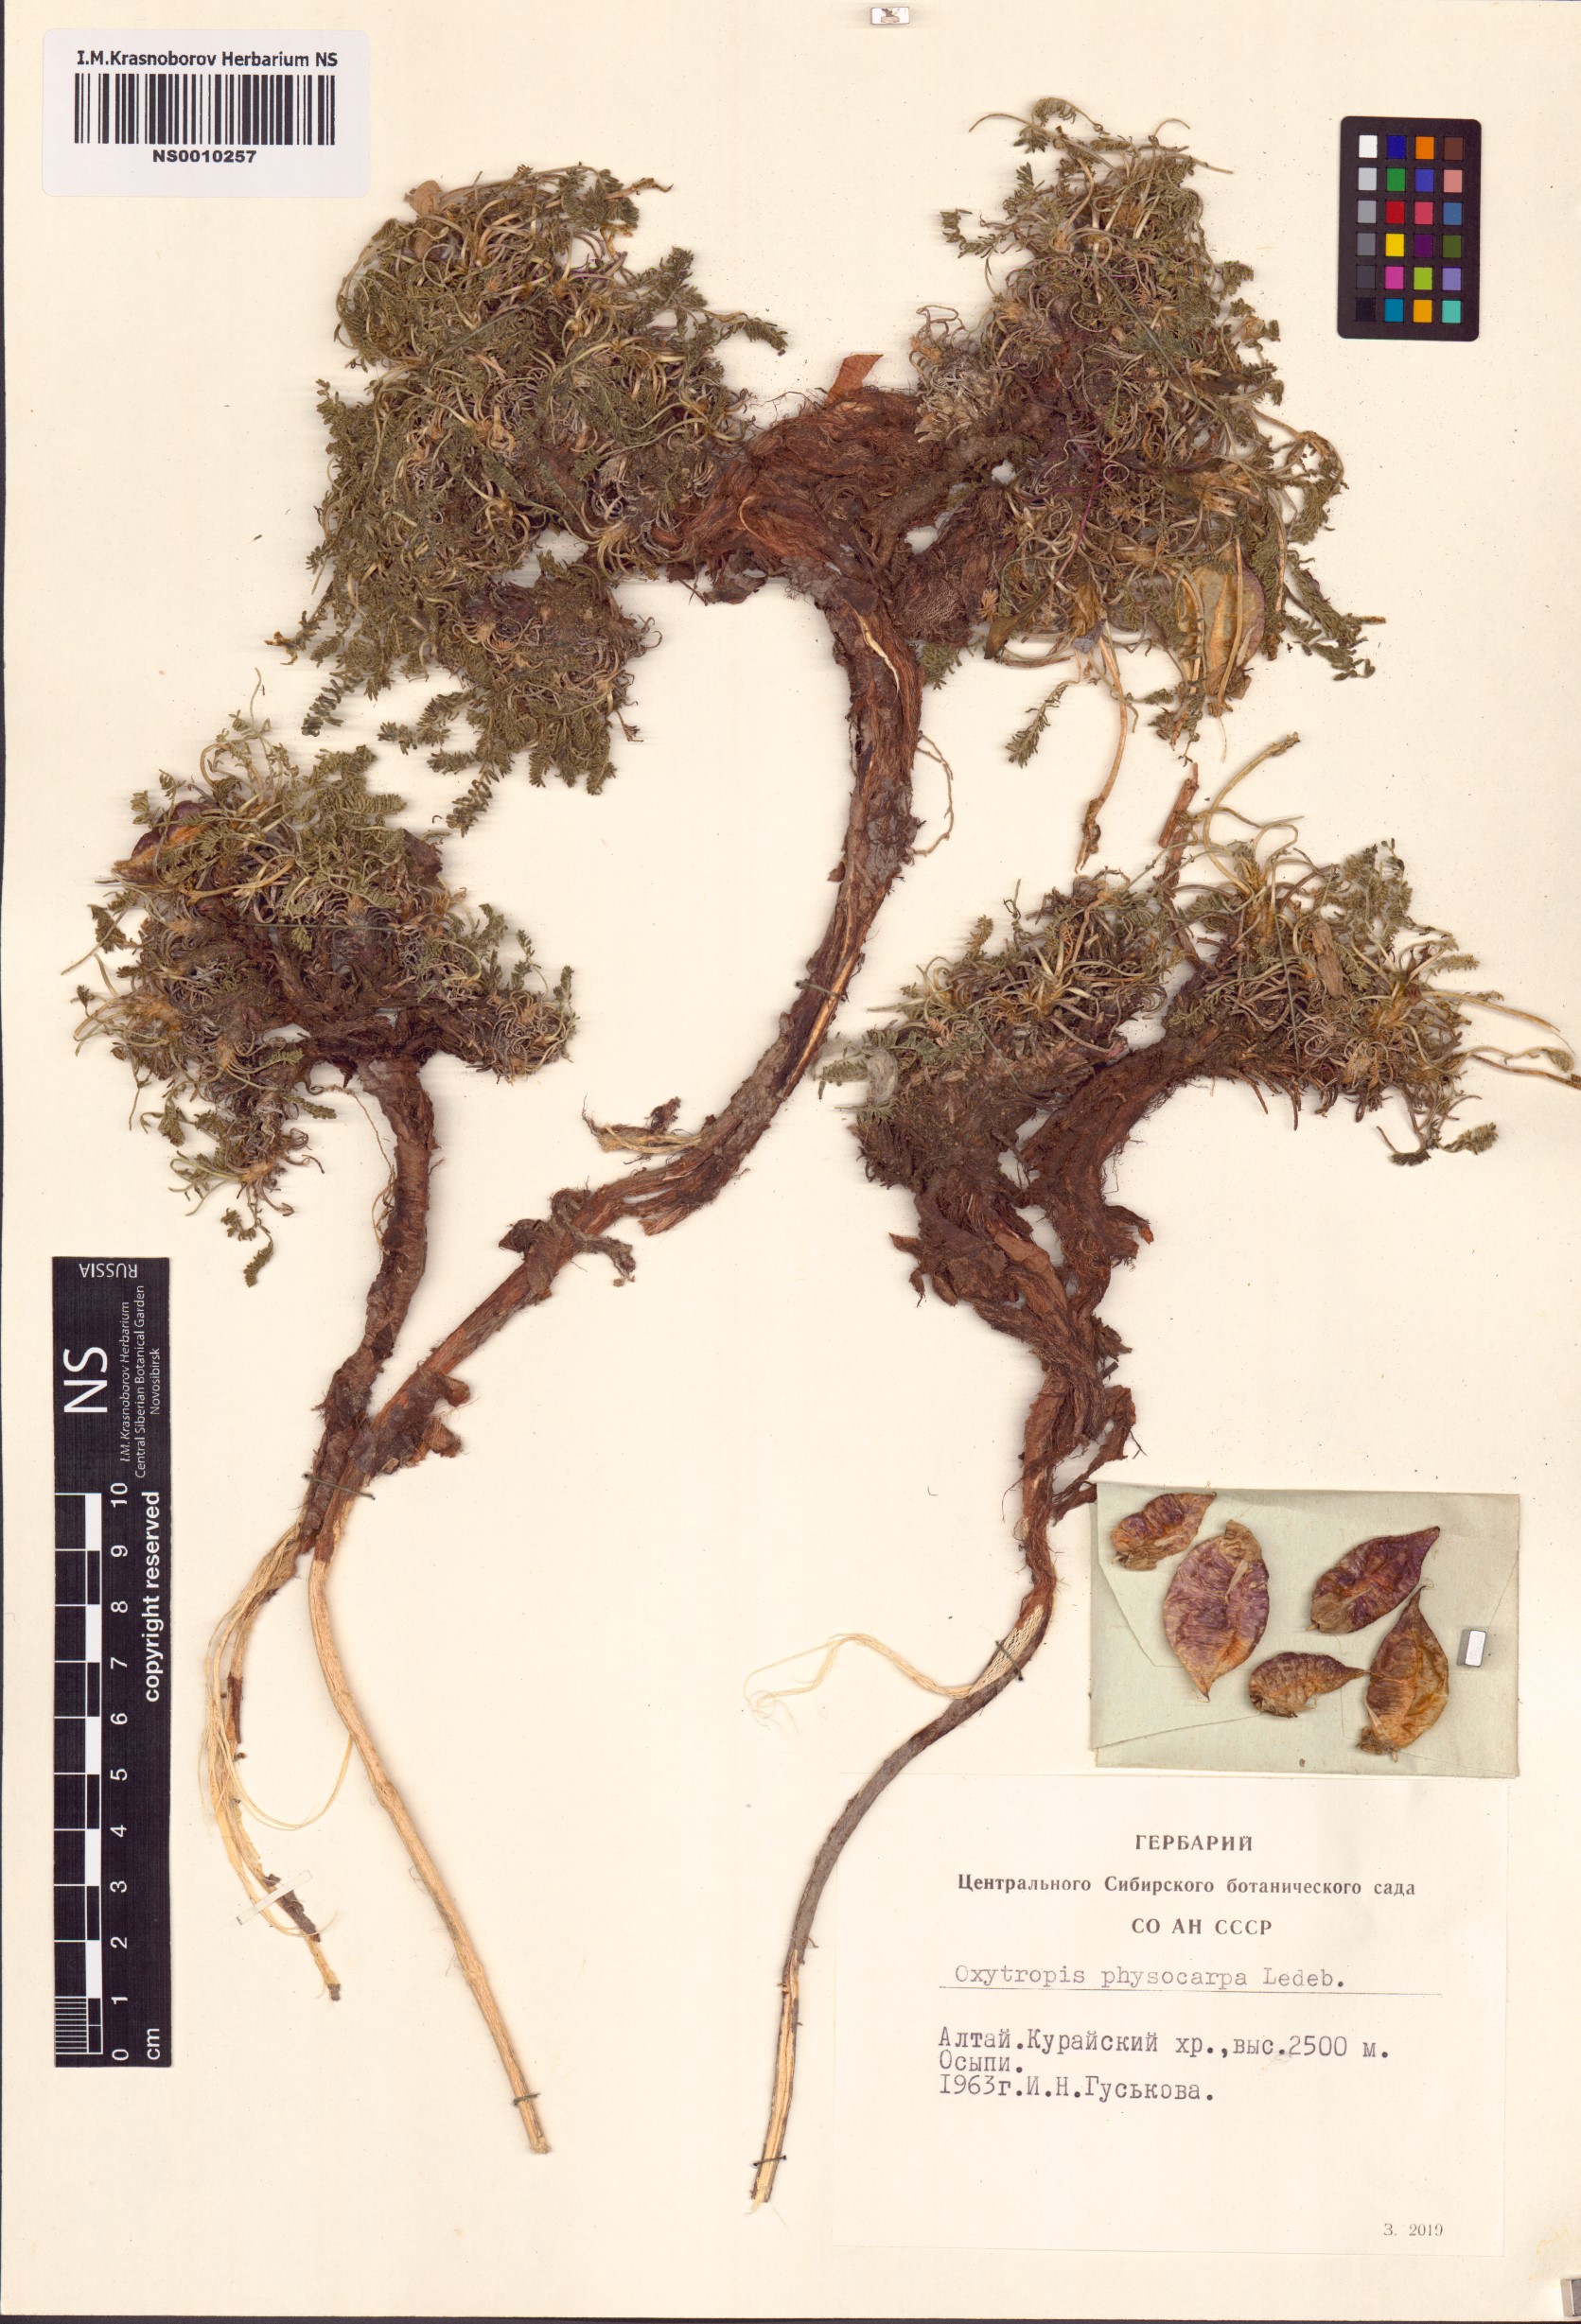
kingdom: Plantae
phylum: Tracheophyta
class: Magnoliopsida
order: Fabales
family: Fabaceae
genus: Oxytropis
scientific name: Oxytropis physocarpa
